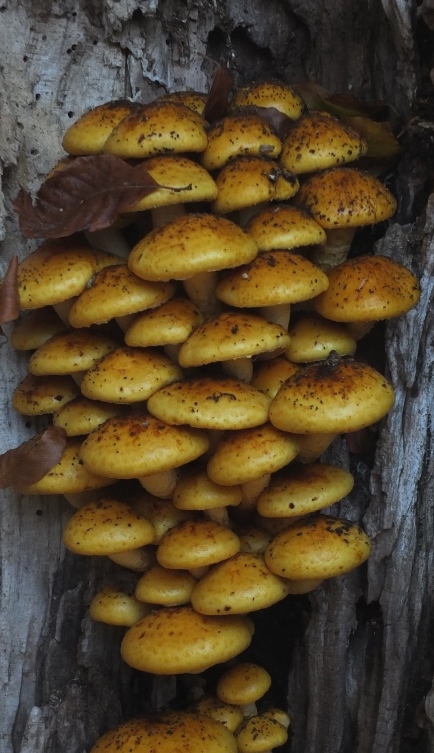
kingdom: Fungi
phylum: Basidiomycota
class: Agaricomycetes
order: Agaricales
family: Strophariaceae
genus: Pholiota
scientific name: Pholiota adiposa
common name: højtsiddende skælhat
